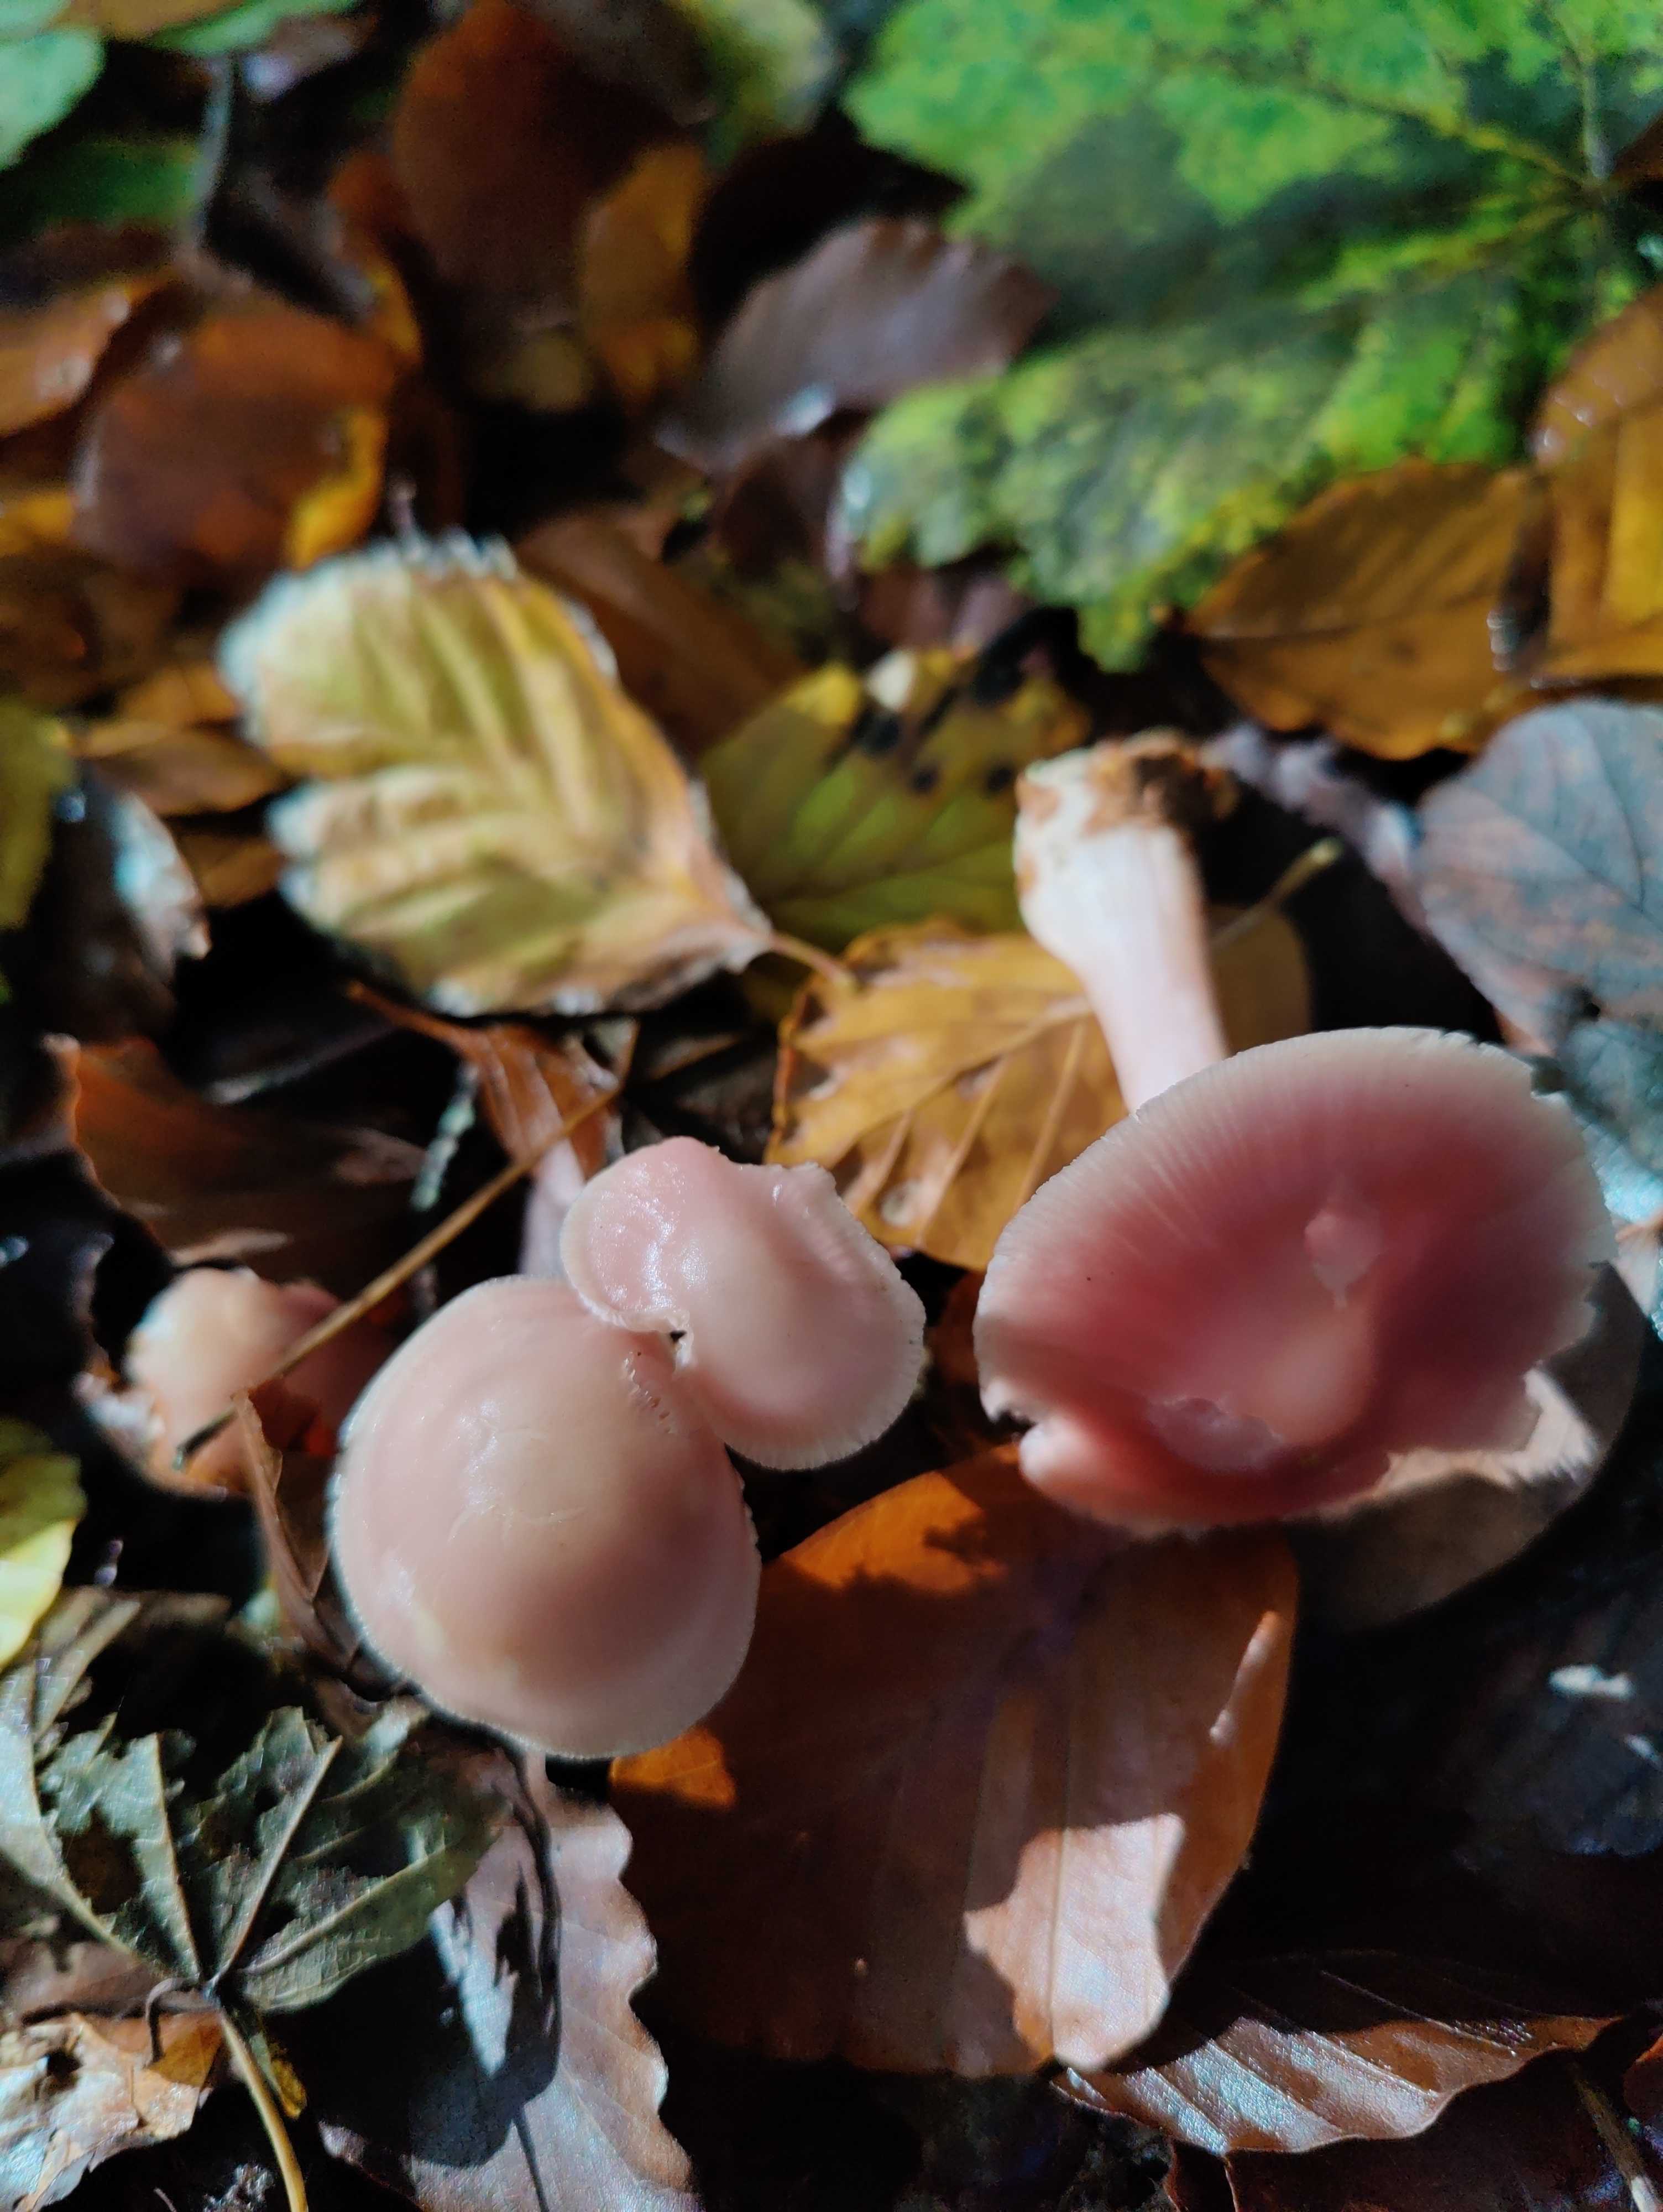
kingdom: Fungi
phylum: Basidiomycota
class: Agaricomycetes
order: Agaricales
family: Mycenaceae
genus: Mycena
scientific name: Mycena rosea
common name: rosa huesvamp
